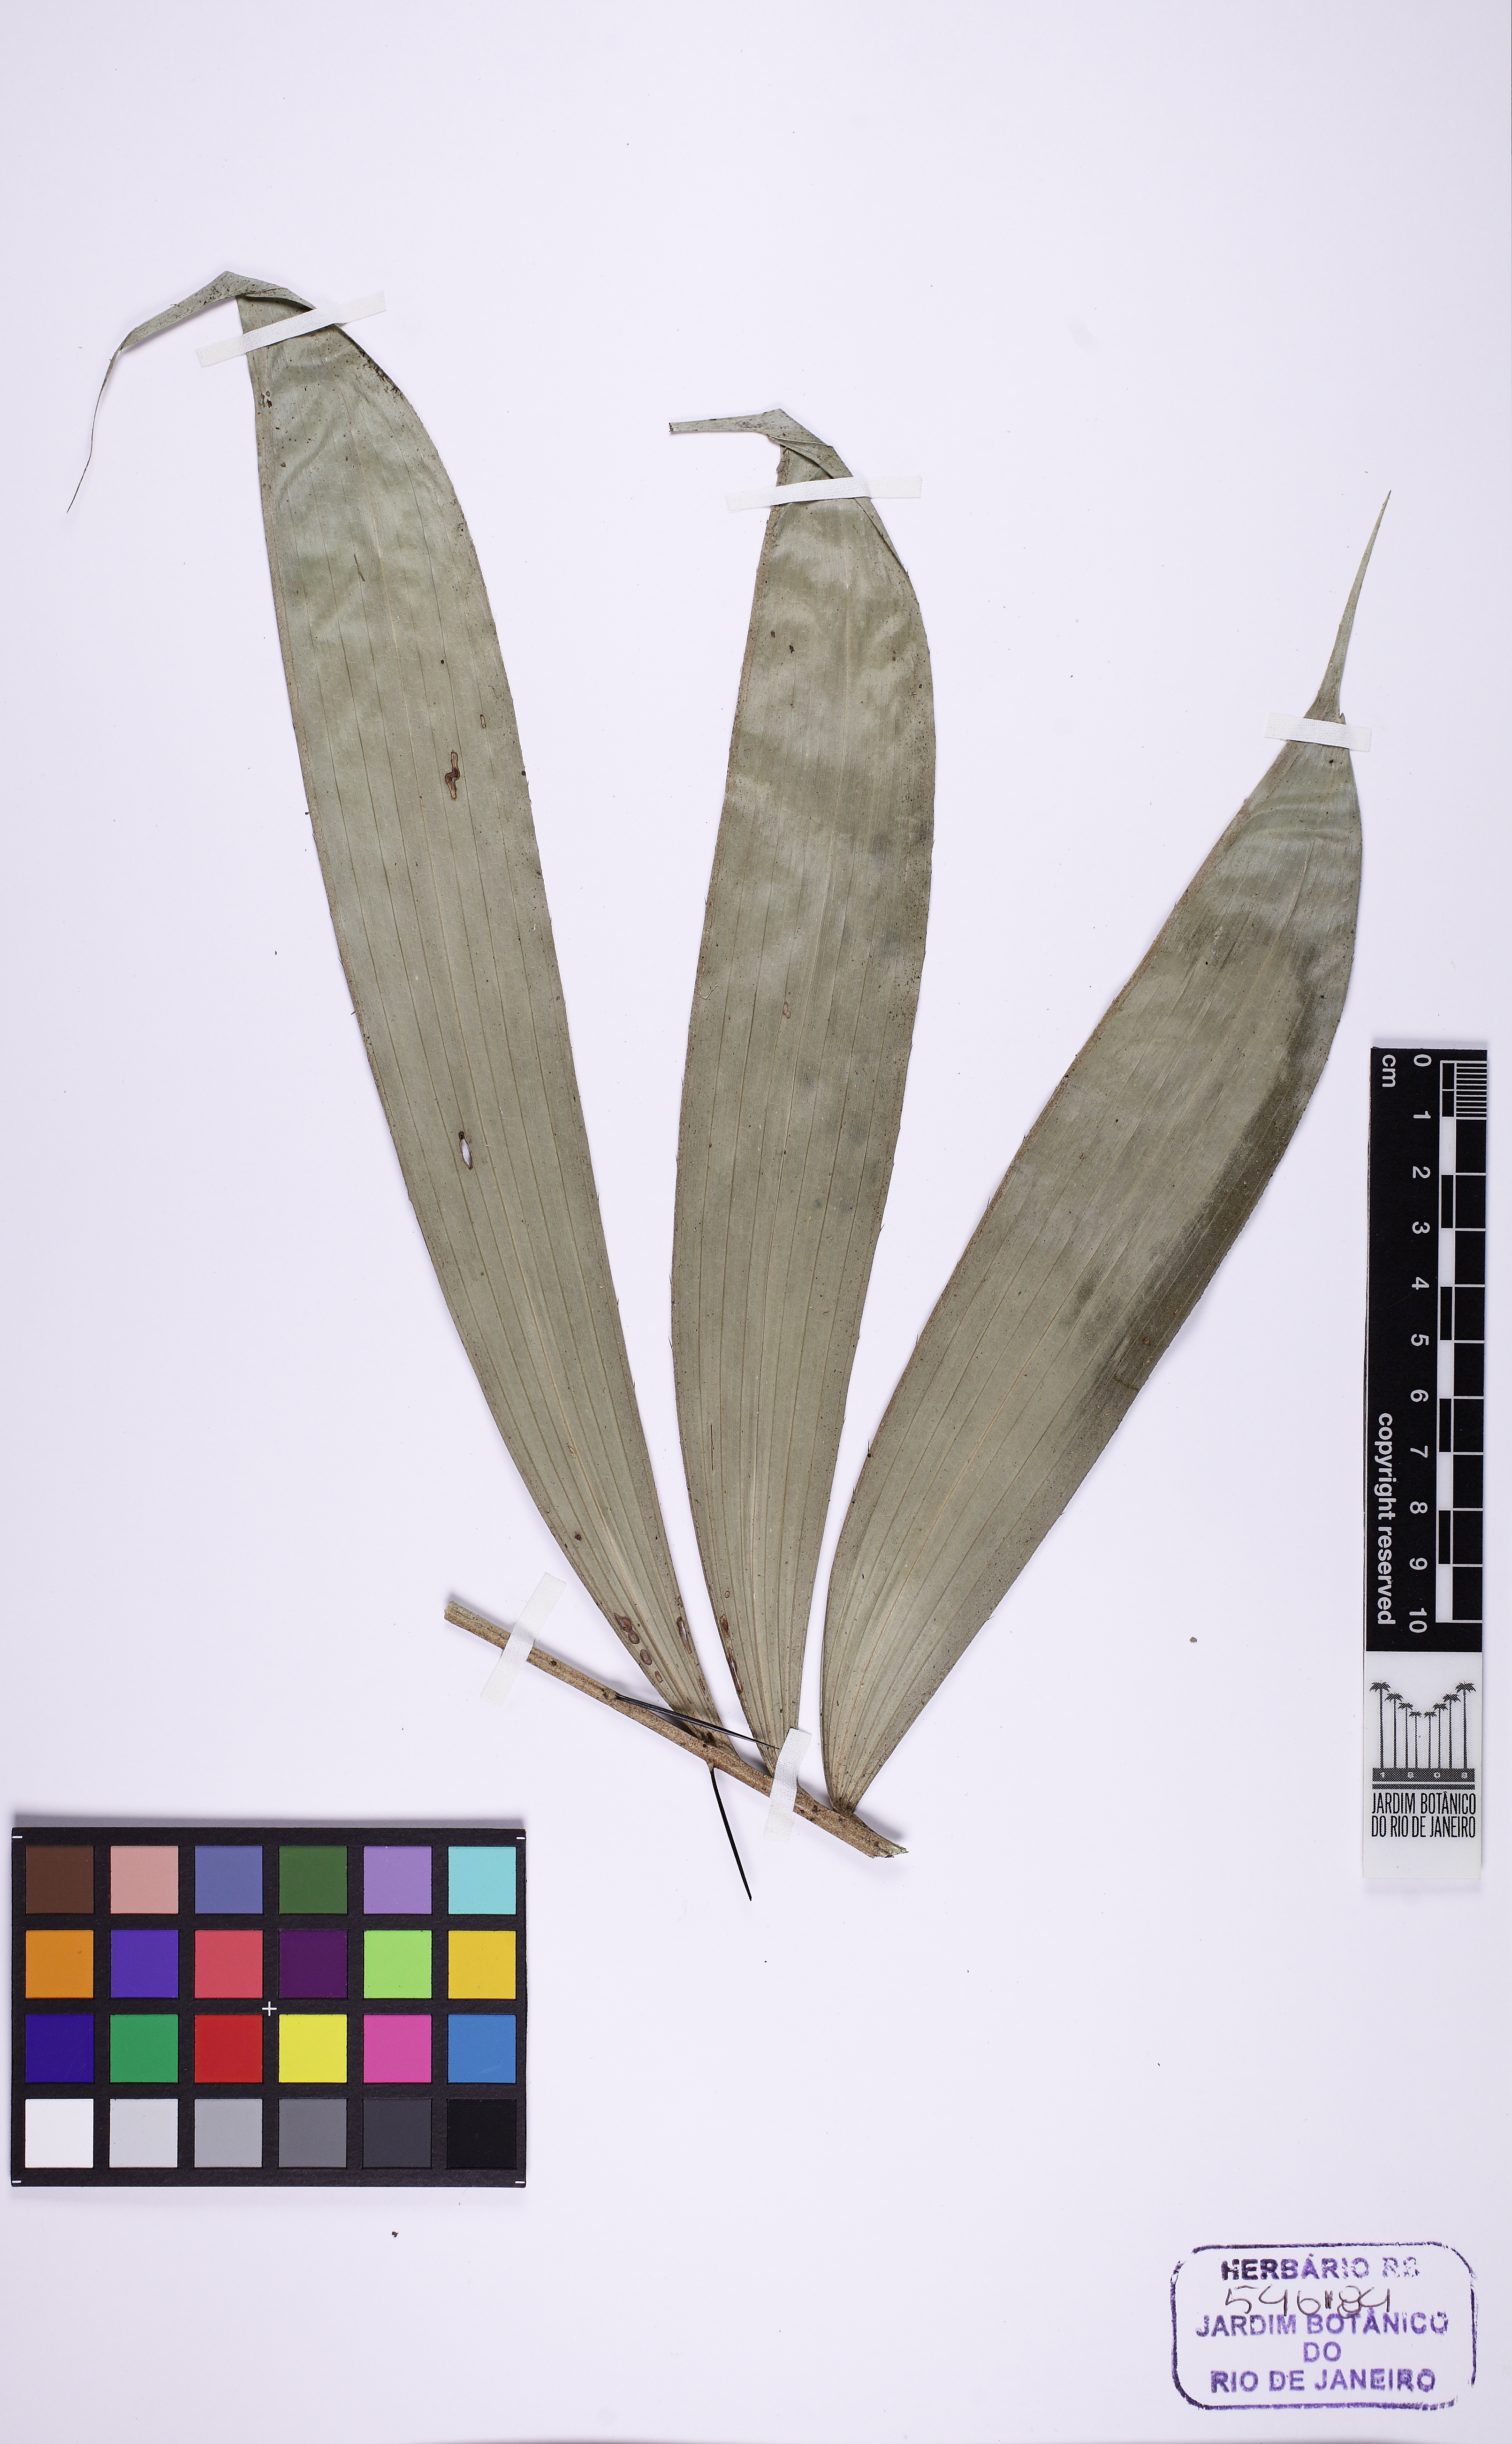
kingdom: Plantae
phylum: Tracheophyta
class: Liliopsida
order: Arecales
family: Arecaceae
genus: Bactris
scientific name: Bactris acanthocarpa
